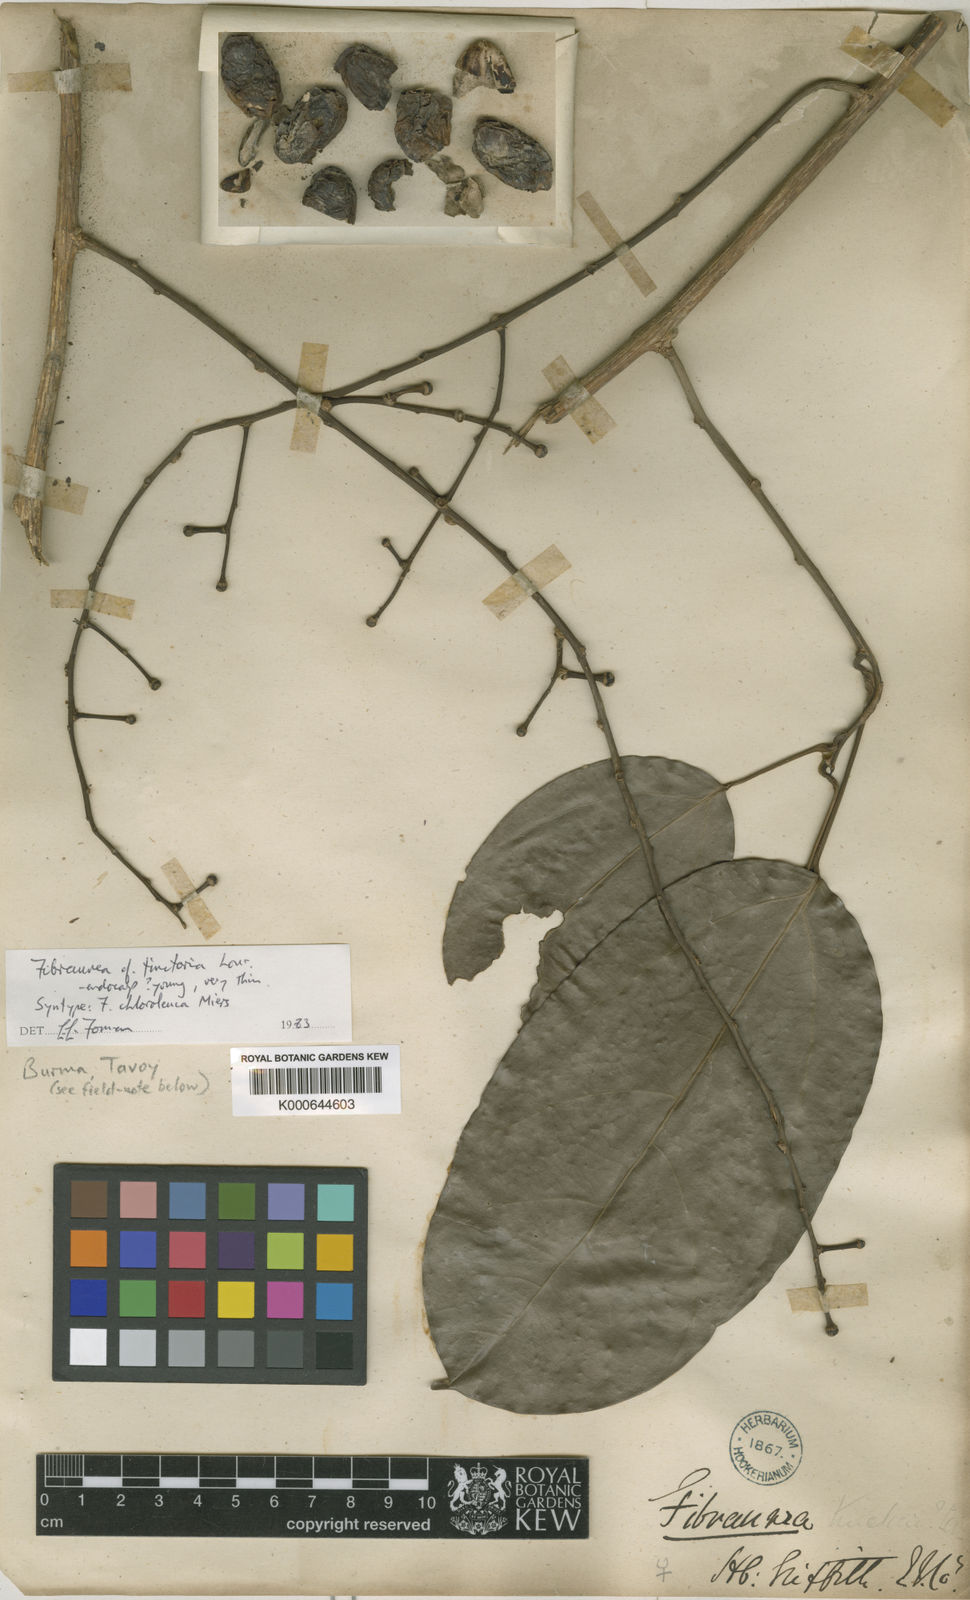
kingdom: Plantae
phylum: Tracheophyta
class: Magnoliopsida
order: Ranunculales
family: Menispermaceae
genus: Fibraurea
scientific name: Fibraurea tinctoria
